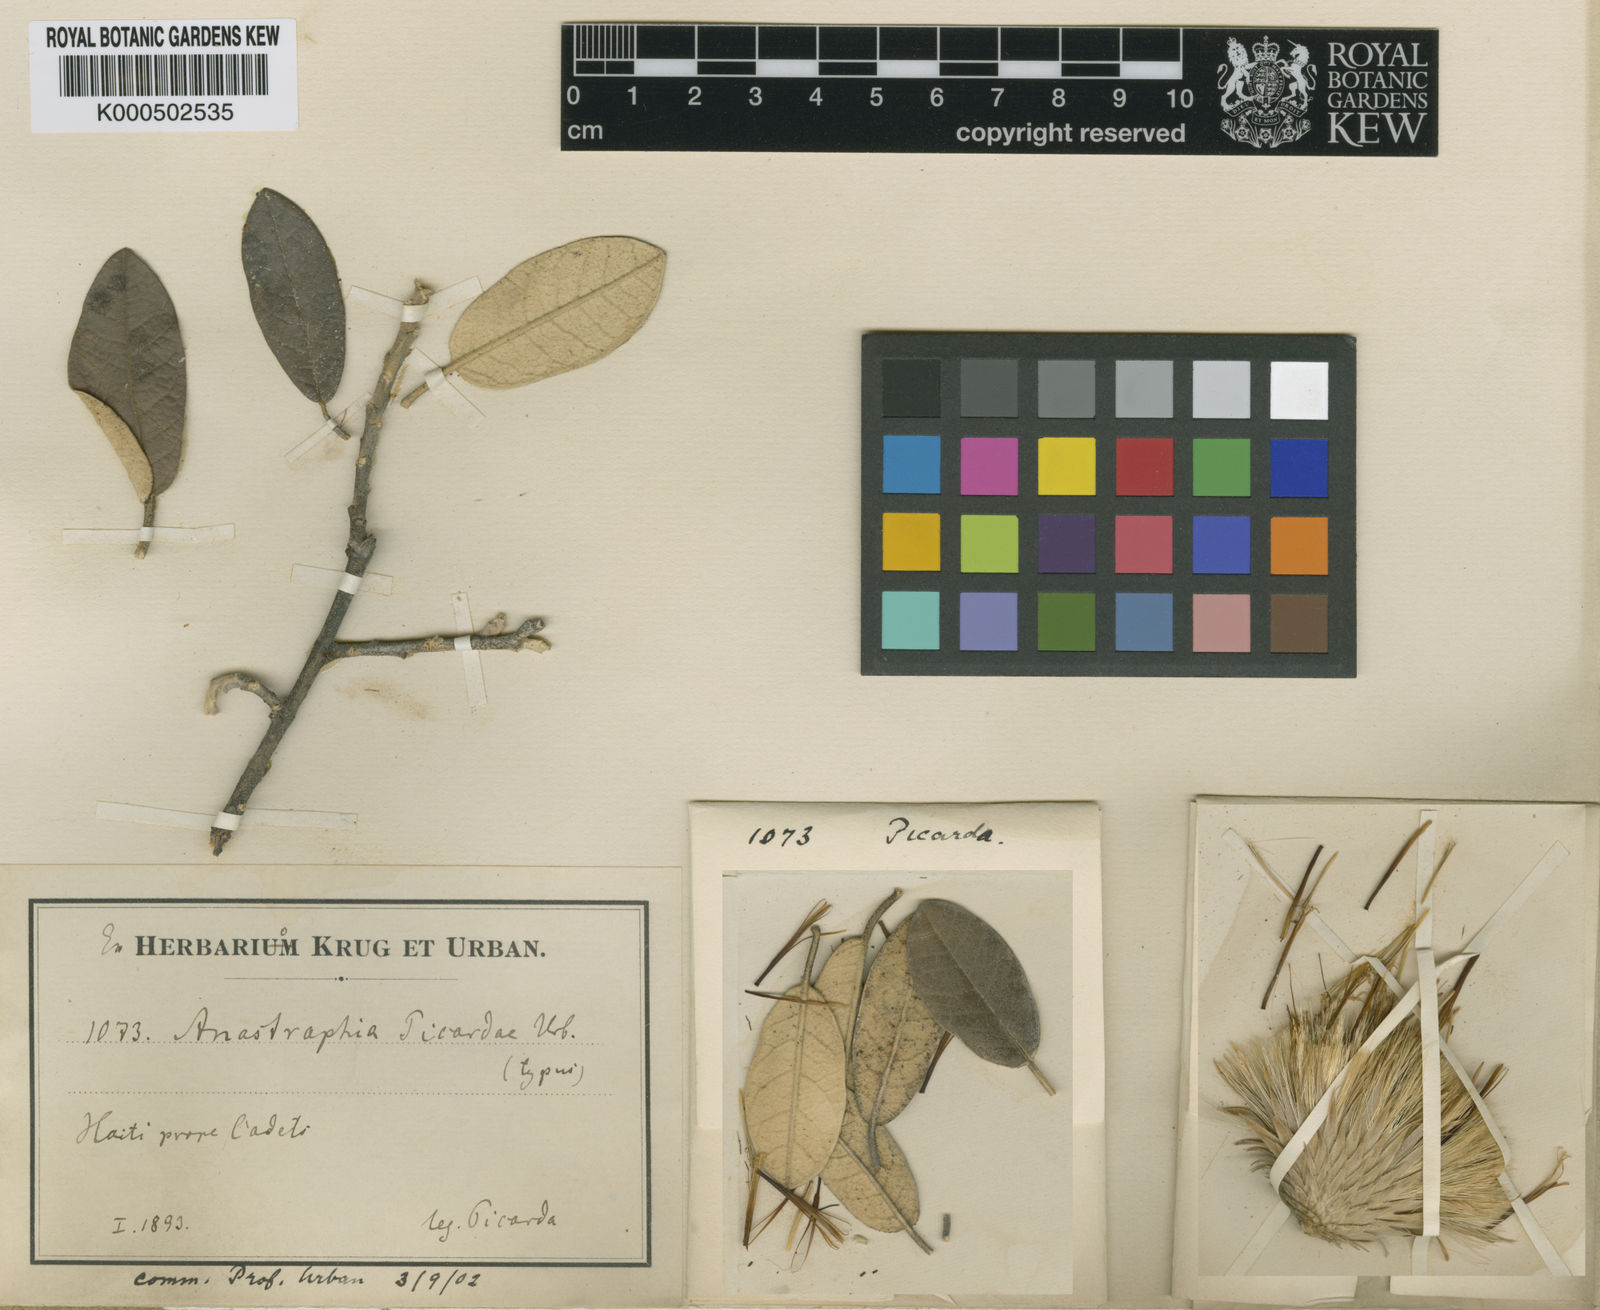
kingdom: Plantae
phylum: Tracheophyta
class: Magnoliopsida
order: Asterales
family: Asteraceae
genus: Anastraphia
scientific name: Anastraphia picardae
